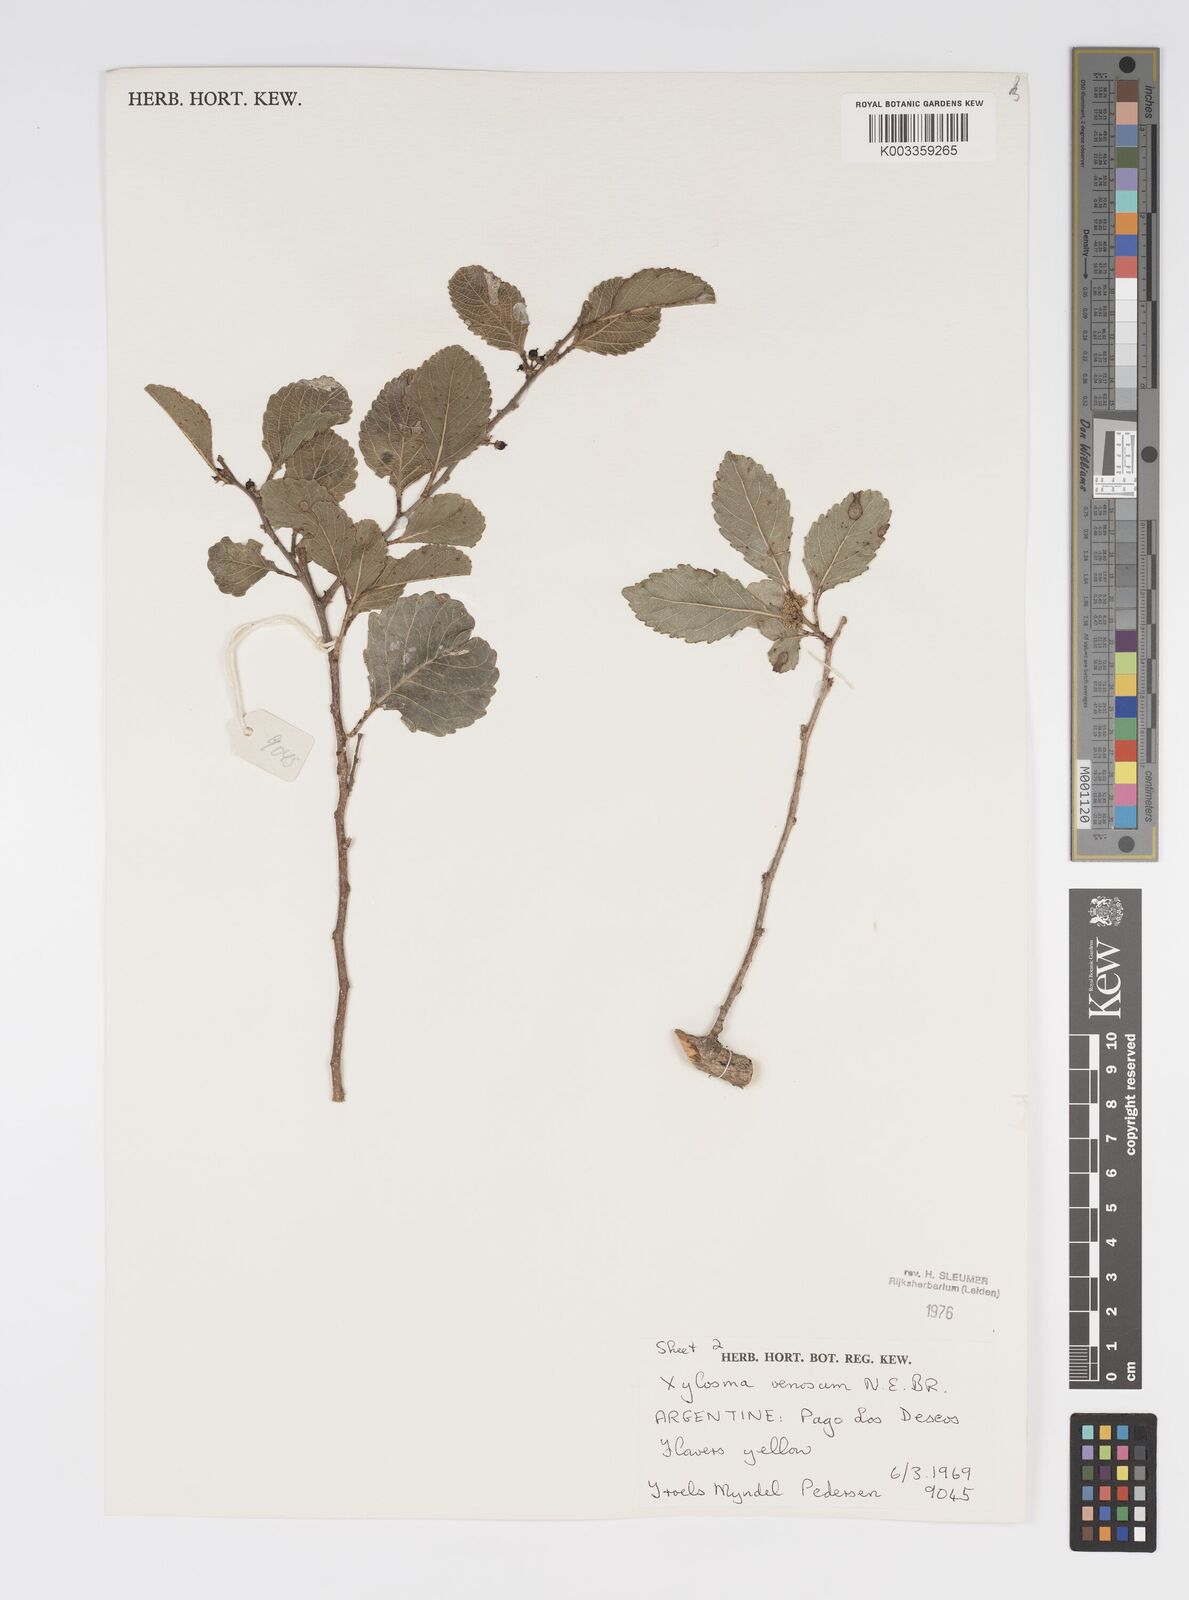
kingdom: Plantae
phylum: Tracheophyta
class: Magnoliopsida
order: Malpighiales
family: Salicaceae
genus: Xylosma
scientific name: Xylosma venosa
